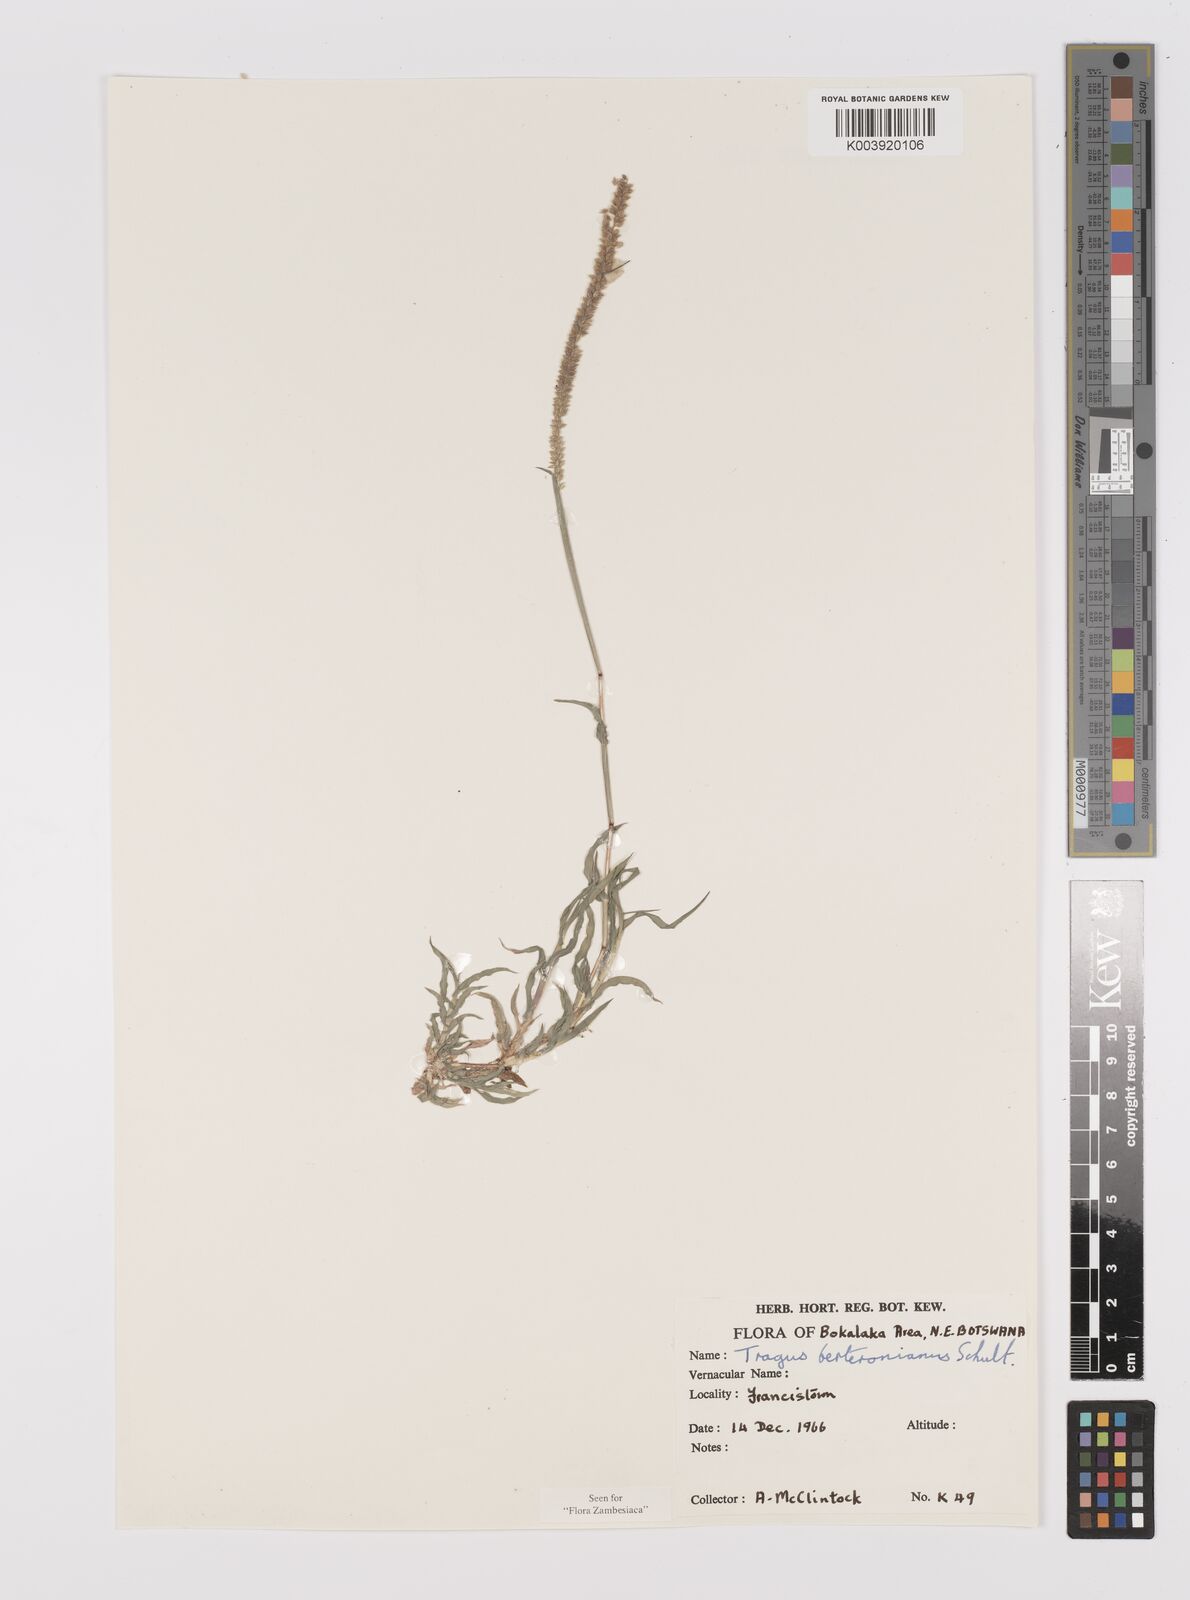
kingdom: Plantae
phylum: Tracheophyta
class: Liliopsida
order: Poales
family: Poaceae
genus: Tragus
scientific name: Tragus berteronianus
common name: African bur-grass
